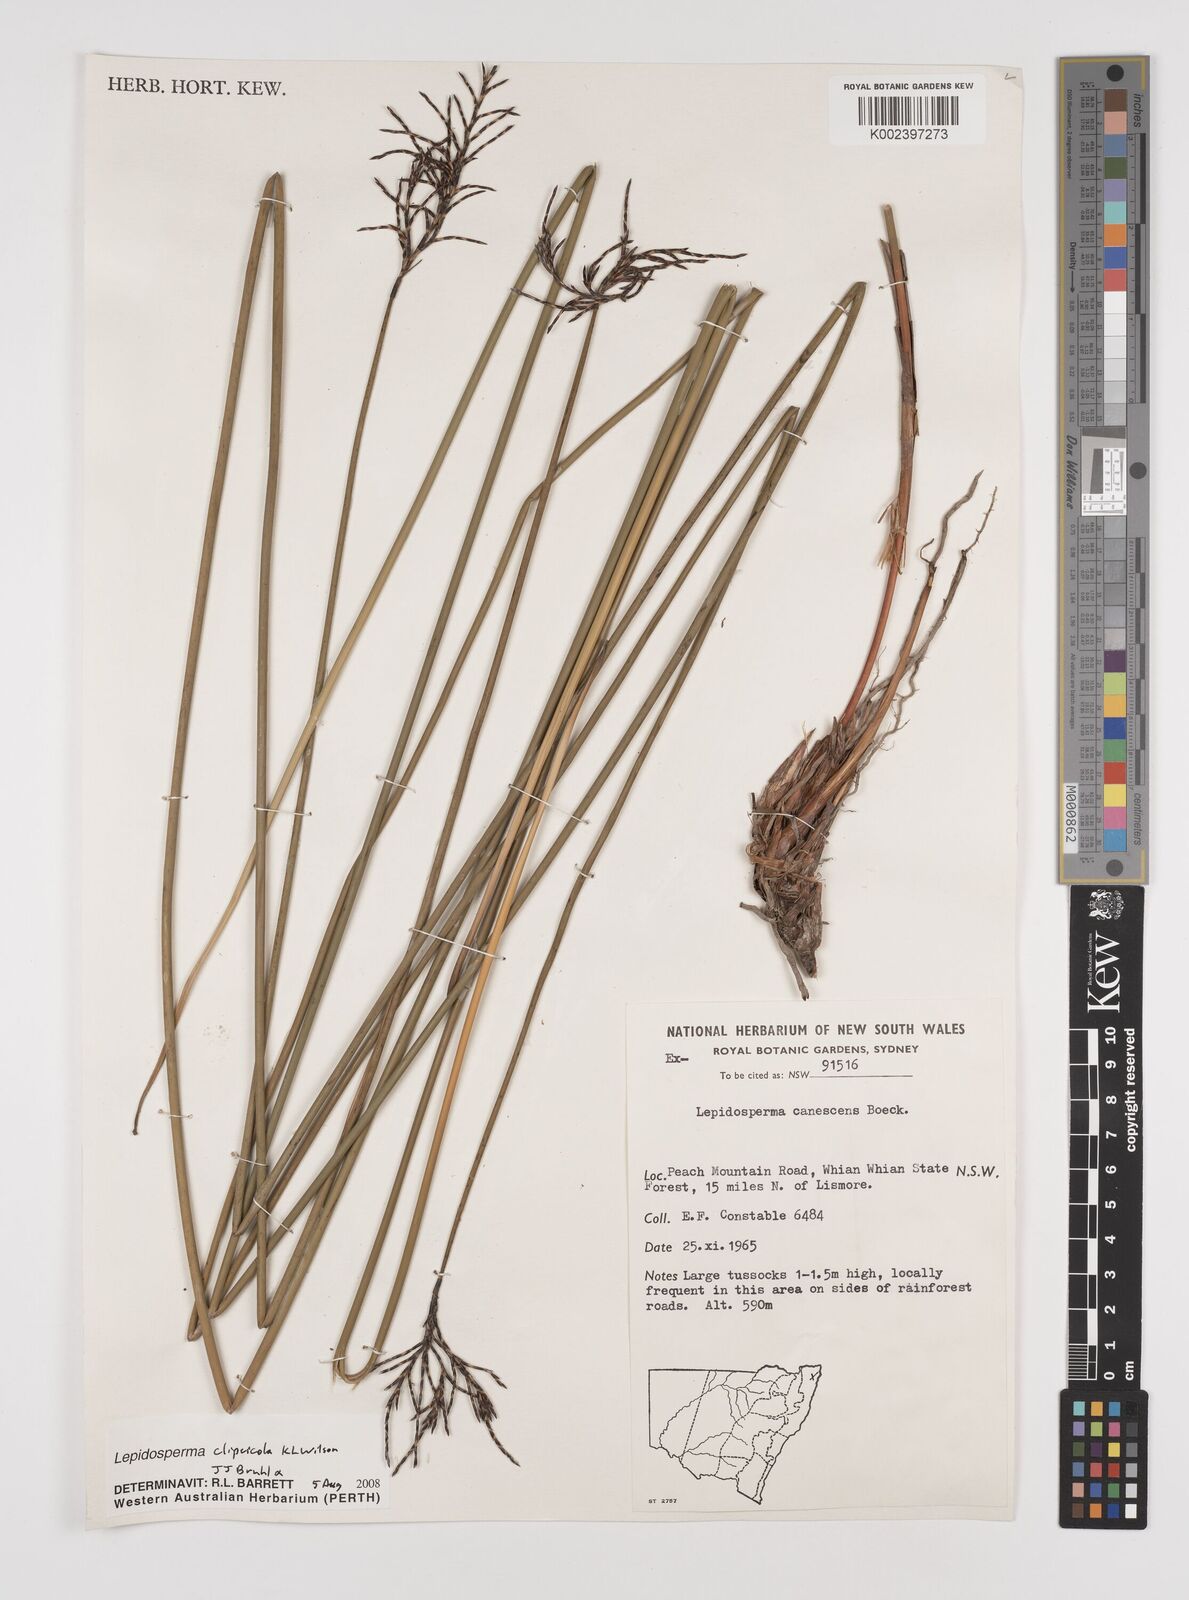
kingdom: Plantae
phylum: Tracheophyta
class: Liliopsida
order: Poales
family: Cyperaceae
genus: Lepidosperma
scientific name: Lepidosperma clipeicola
